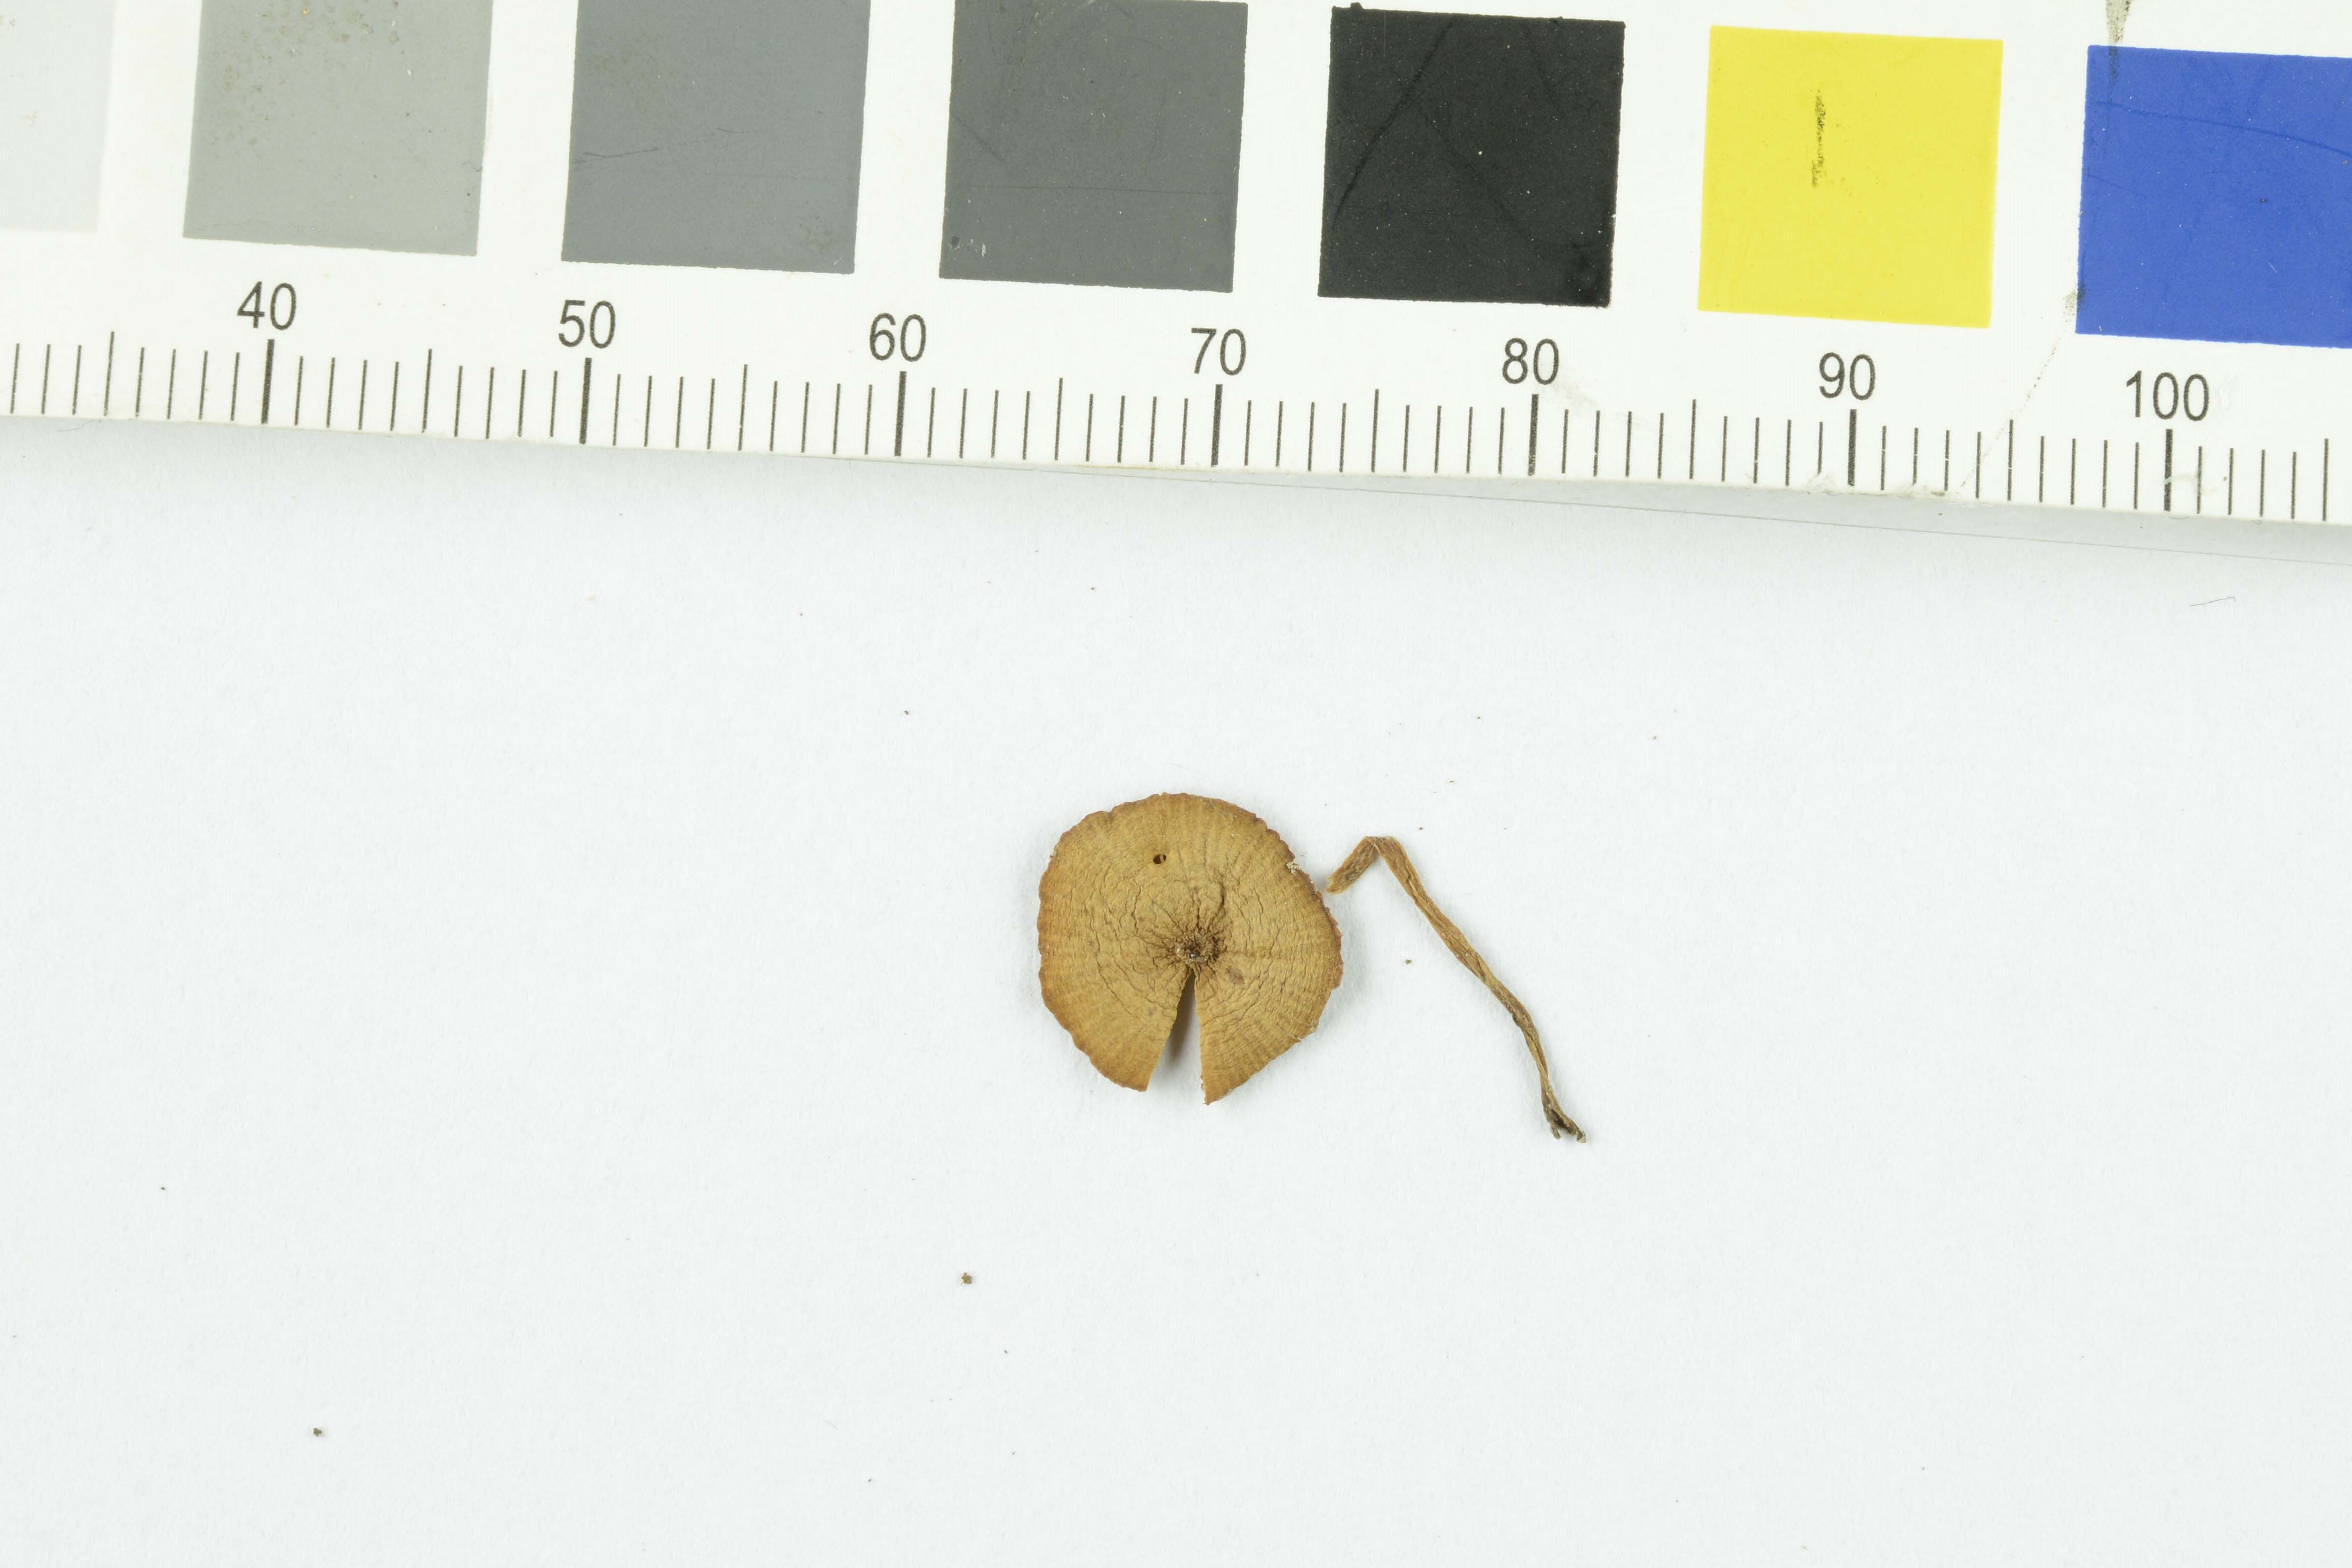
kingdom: Fungi
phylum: Basidiomycota
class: Agaricomycetes
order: Agaricales
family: Bolbitiaceae
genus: Conocybe
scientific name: Conocybe brachypodii
